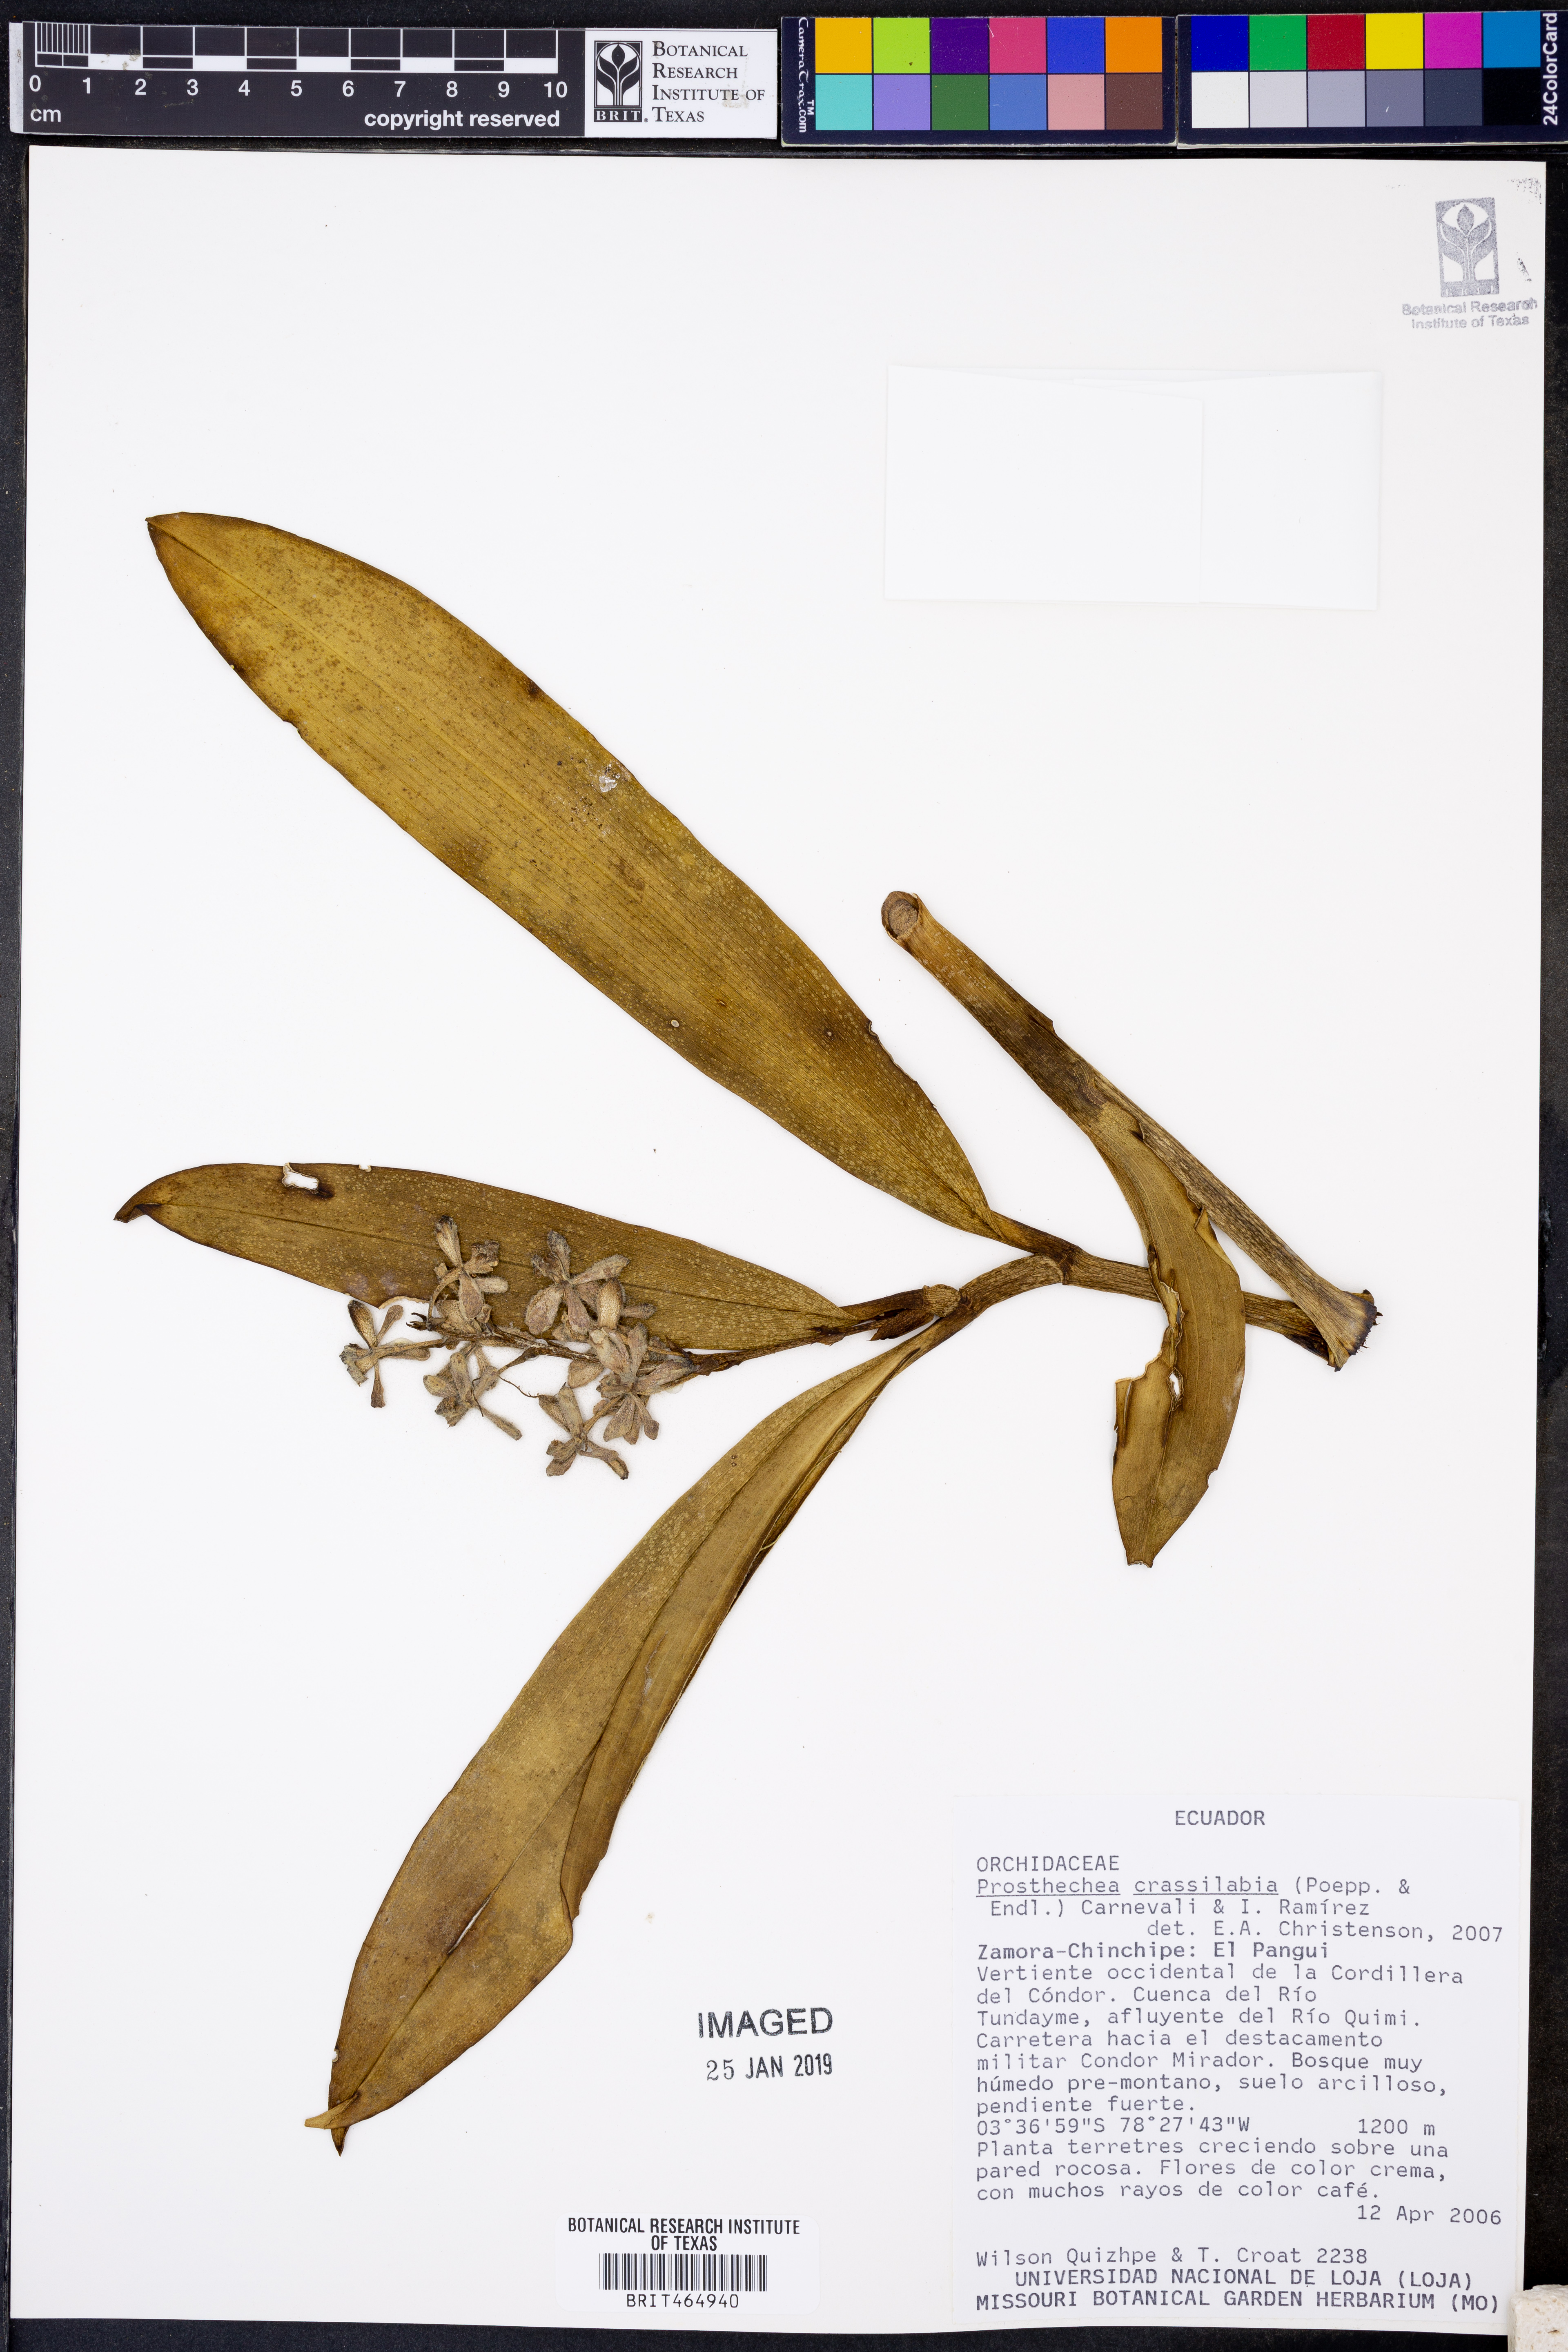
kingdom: Plantae
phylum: Tracheophyta
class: Liliopsida
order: Asparagales
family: Orchidaceae
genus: Prosthechea
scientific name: Prosthechea crassilabia
